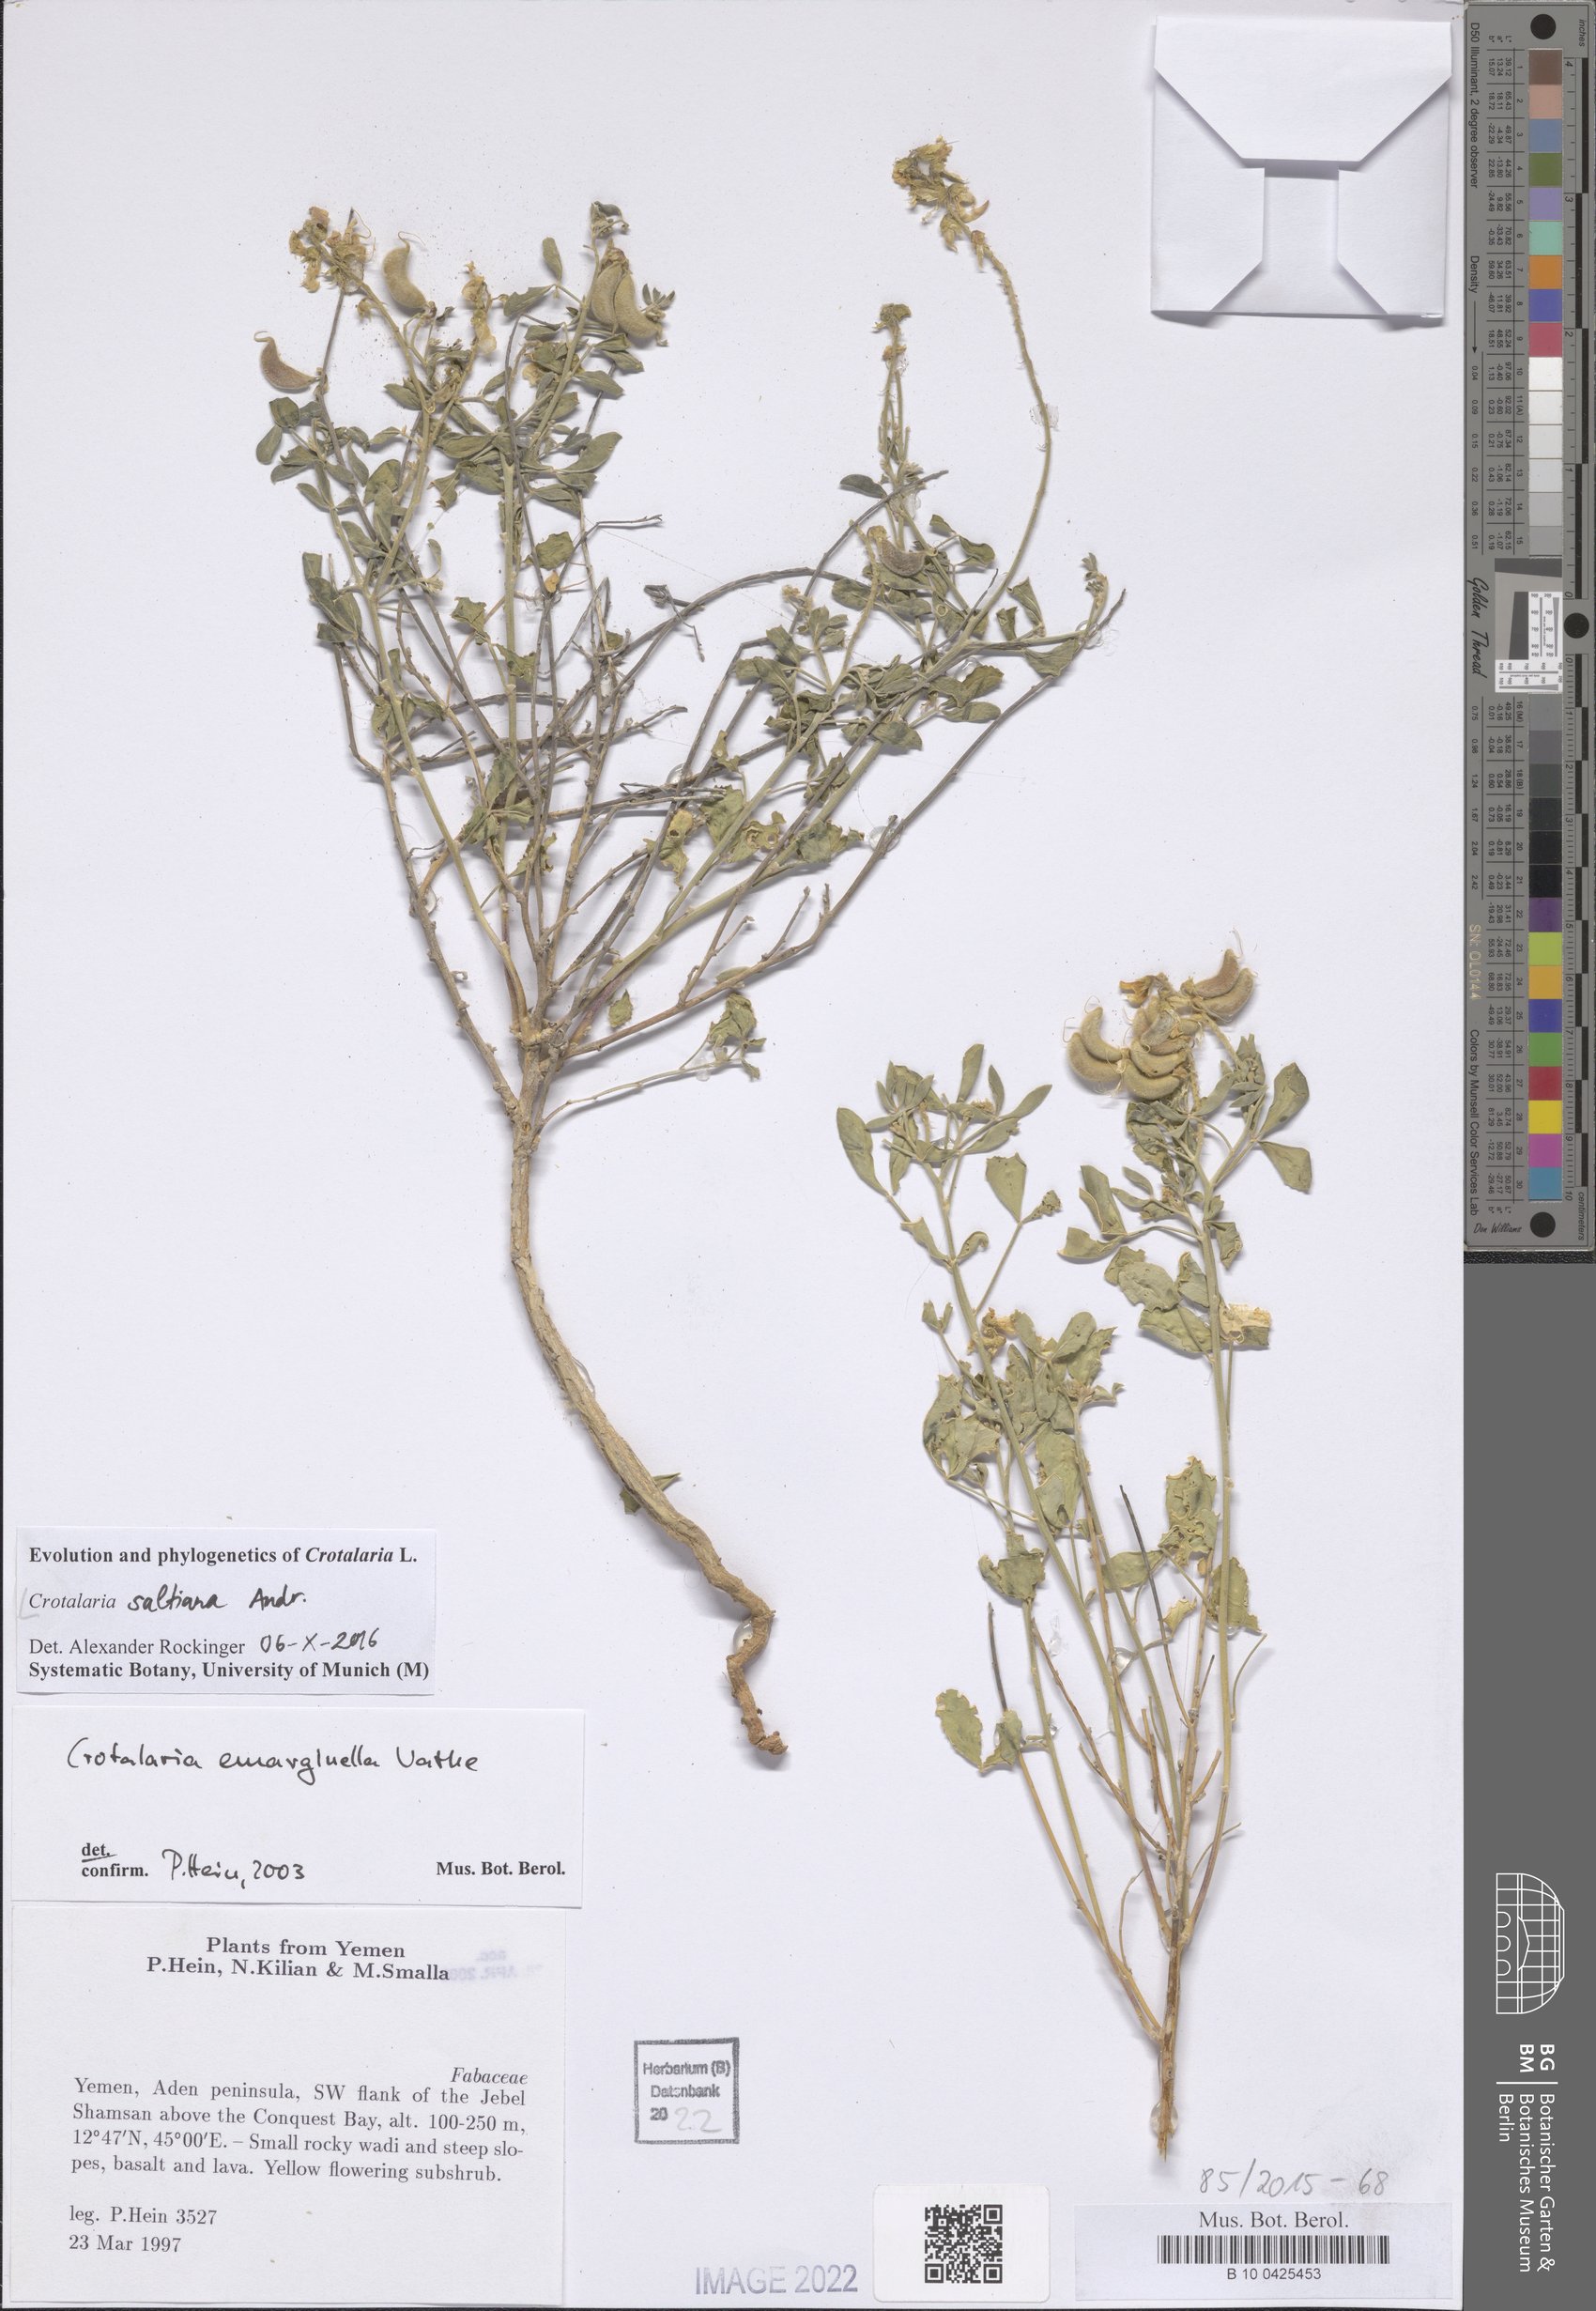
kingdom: Plantae
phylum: Tracheophyta
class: Magnoliopsida
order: Fabales
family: Fabaceae
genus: Crotalaria
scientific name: Crotalaria saltiana
